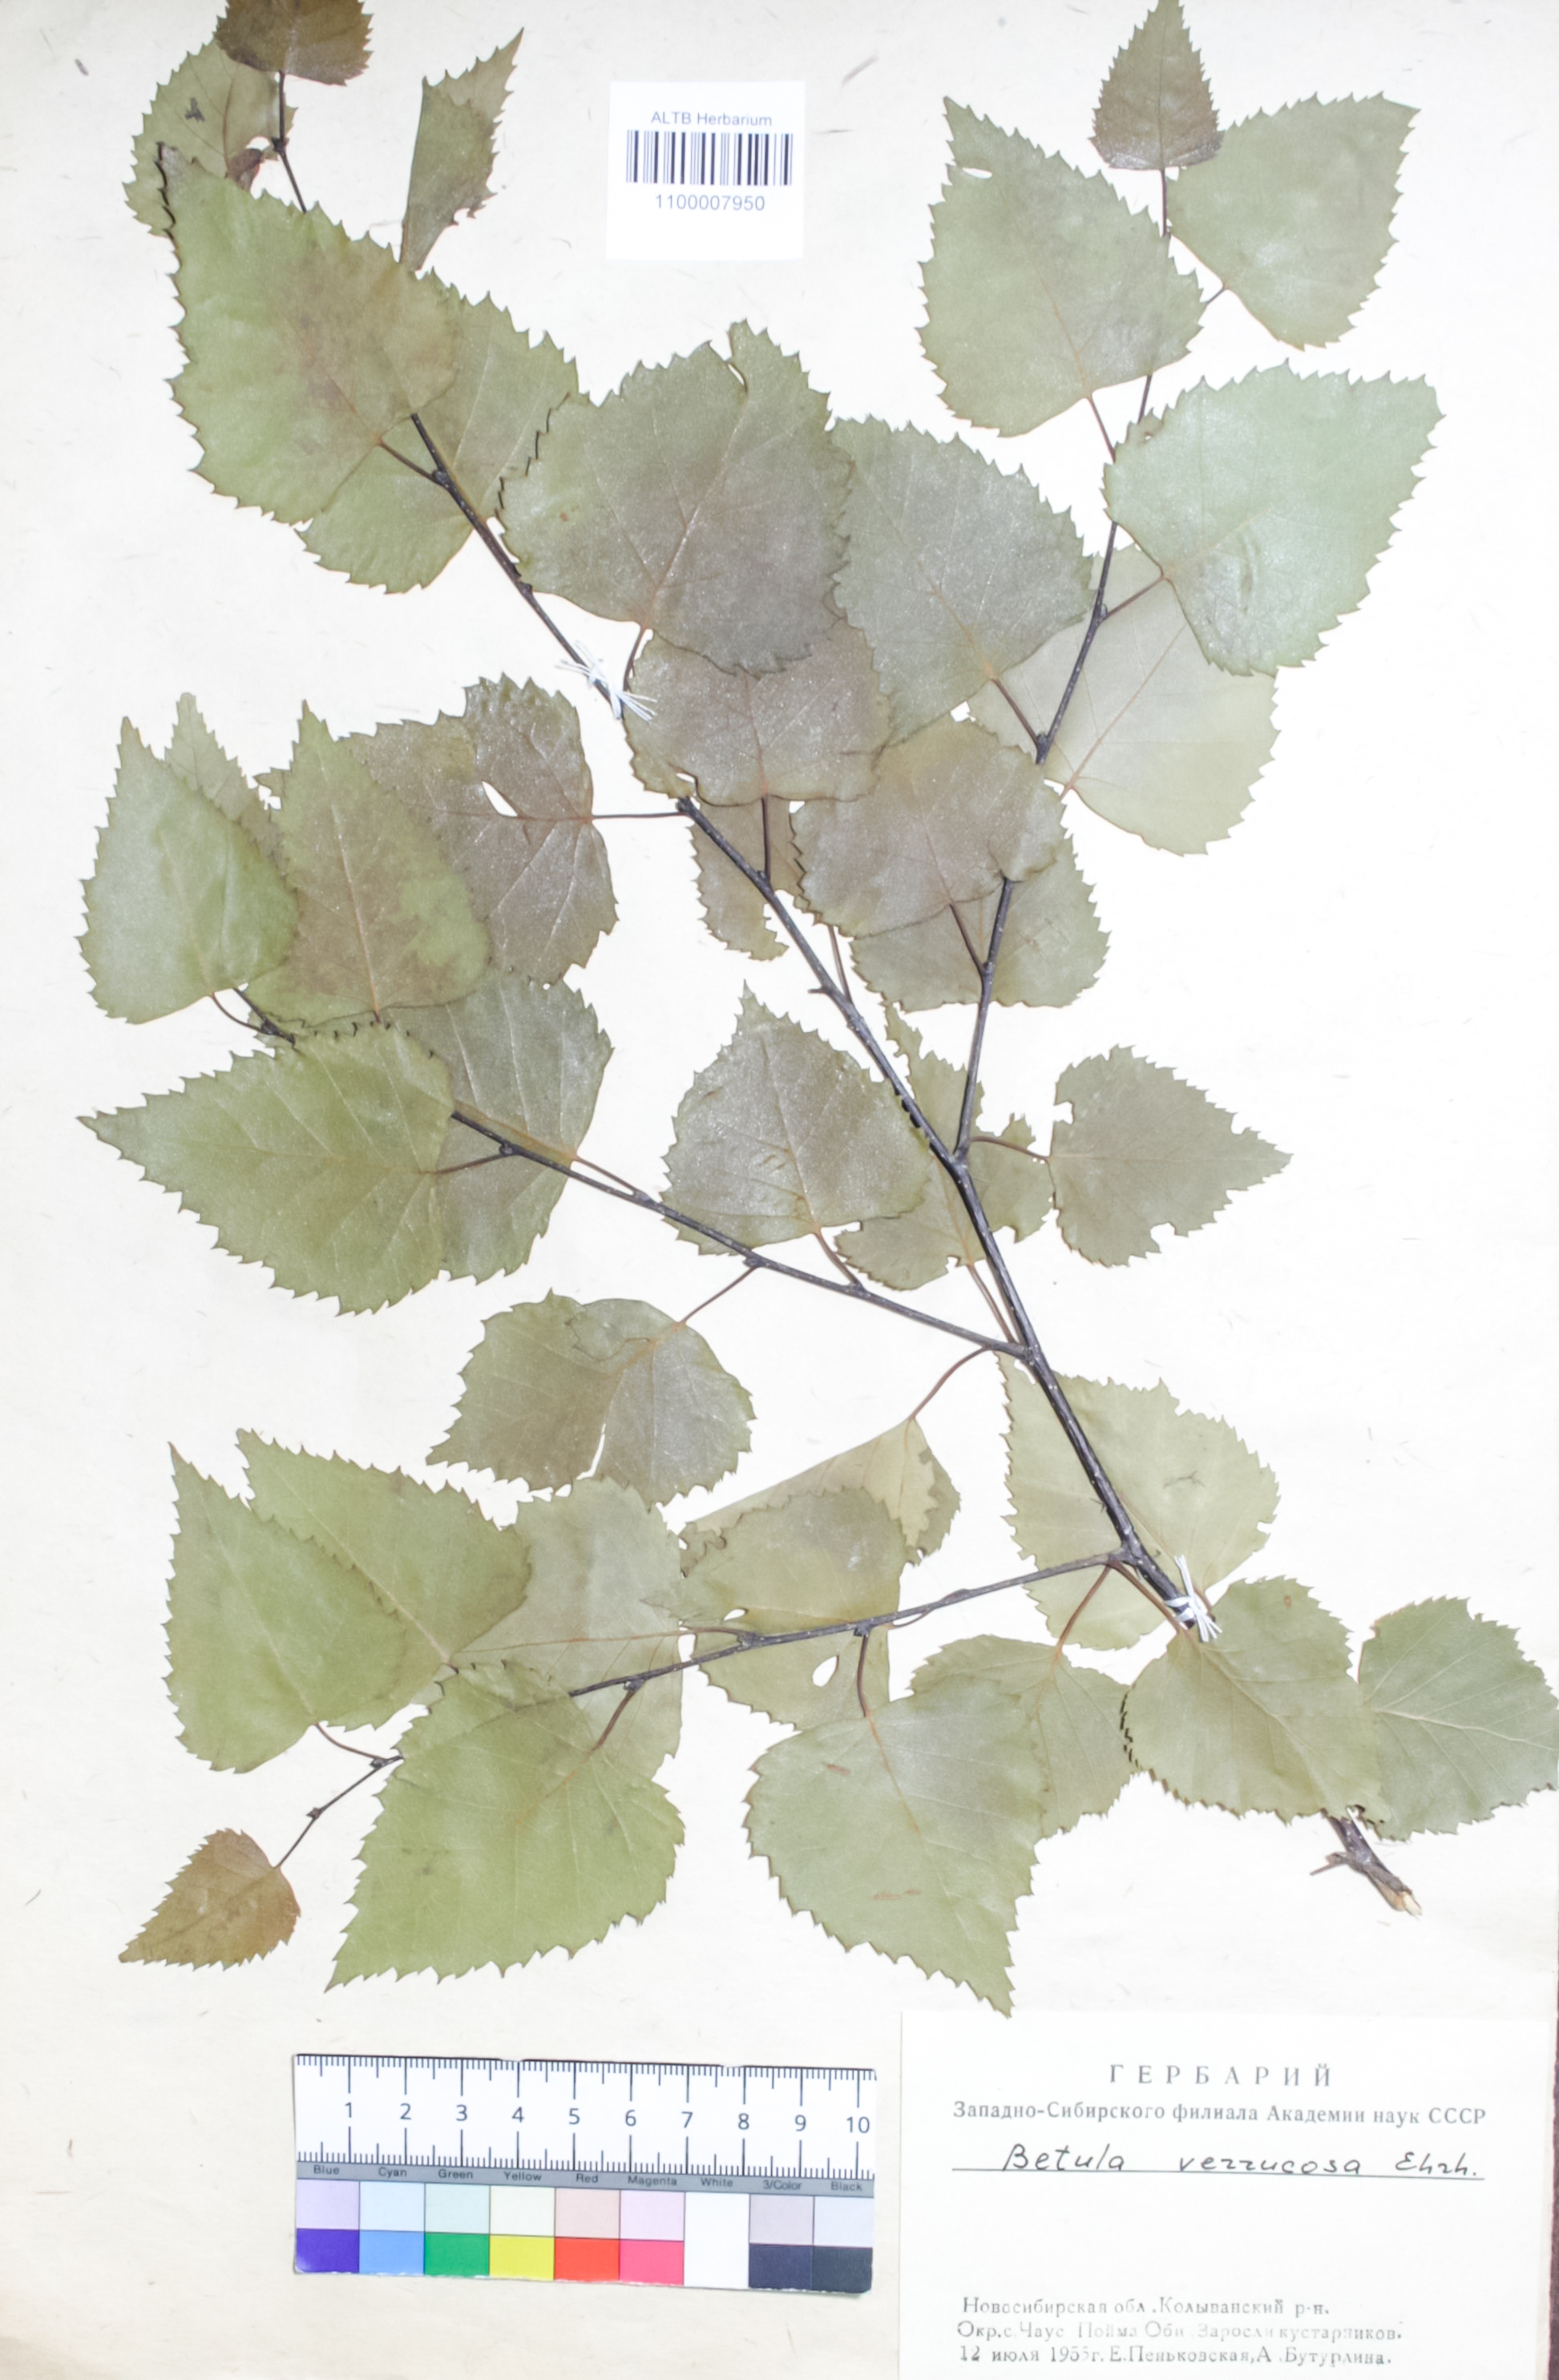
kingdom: Plantae
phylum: Tracheophyta
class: Magnoliopsida
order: Fagales
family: Betulaceae
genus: Betula
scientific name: Betula pendula
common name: Silver birch
